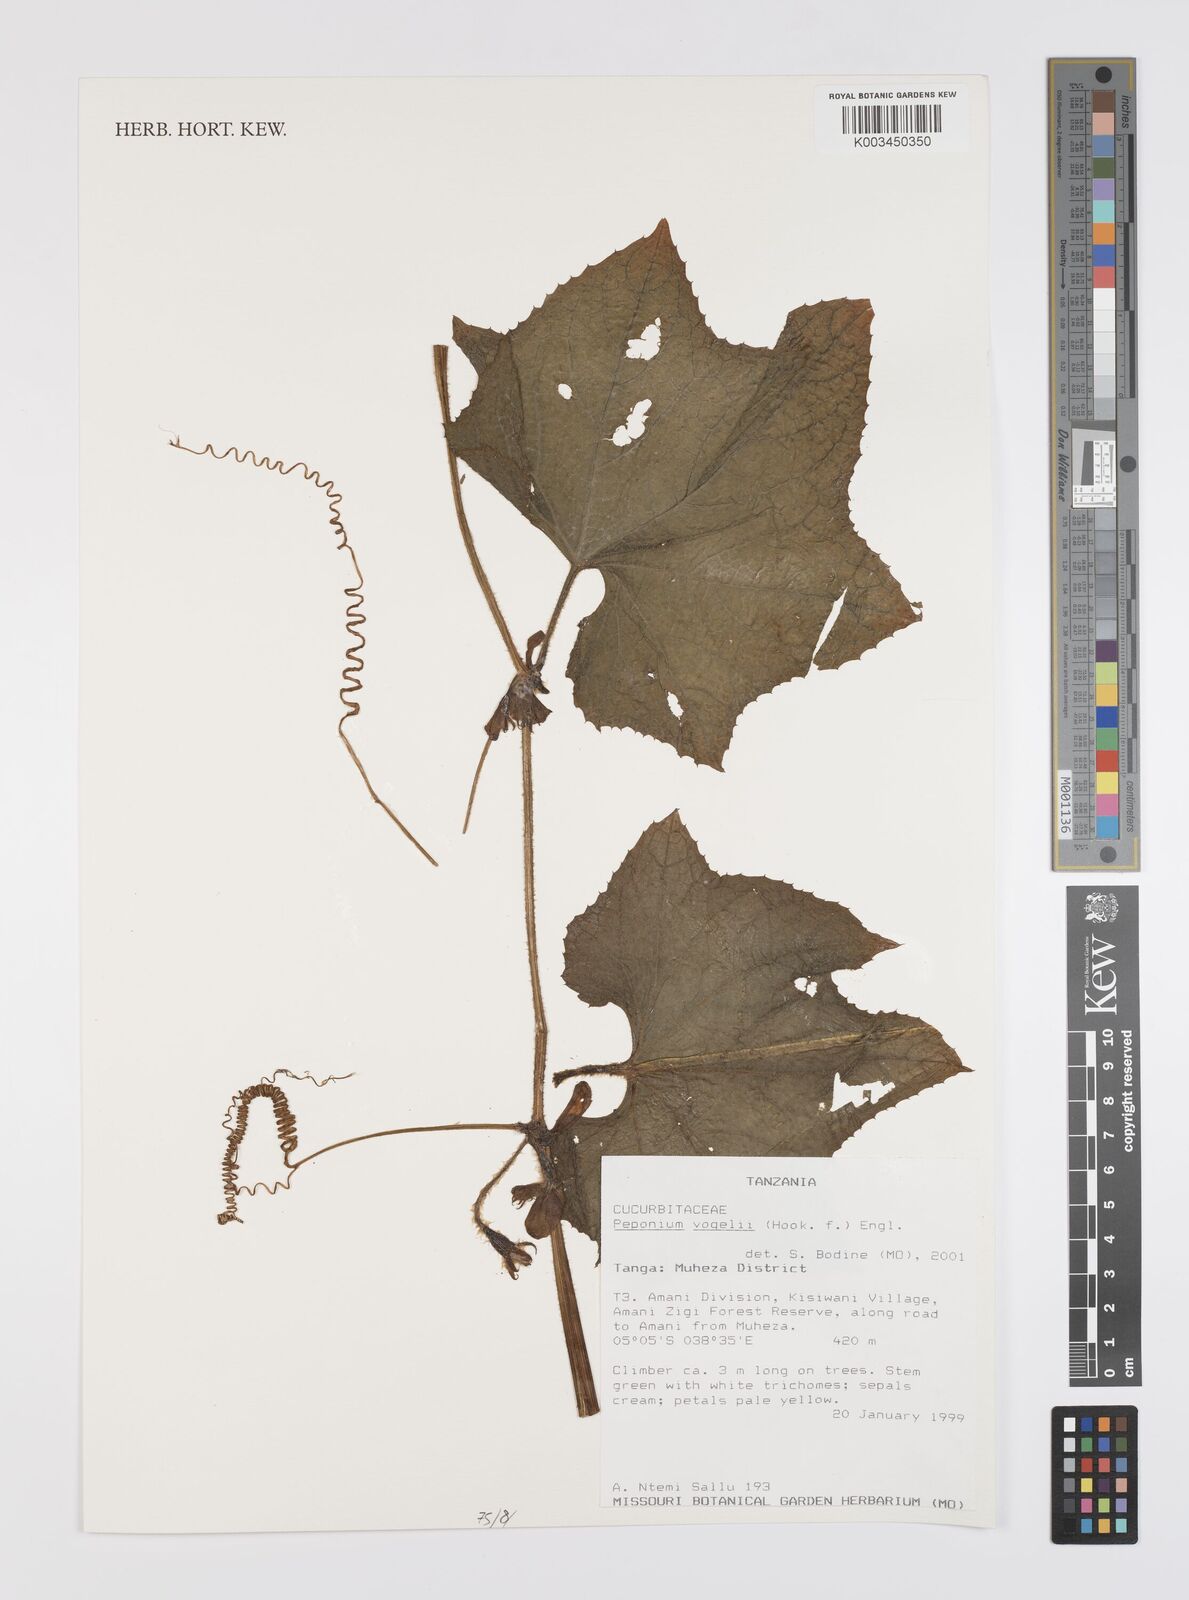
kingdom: Plantae
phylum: Tracheophyta
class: Magnoliopsida
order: Cucurbitales
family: Cucurbitaceae
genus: Peponium
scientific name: Peponium vogelii
